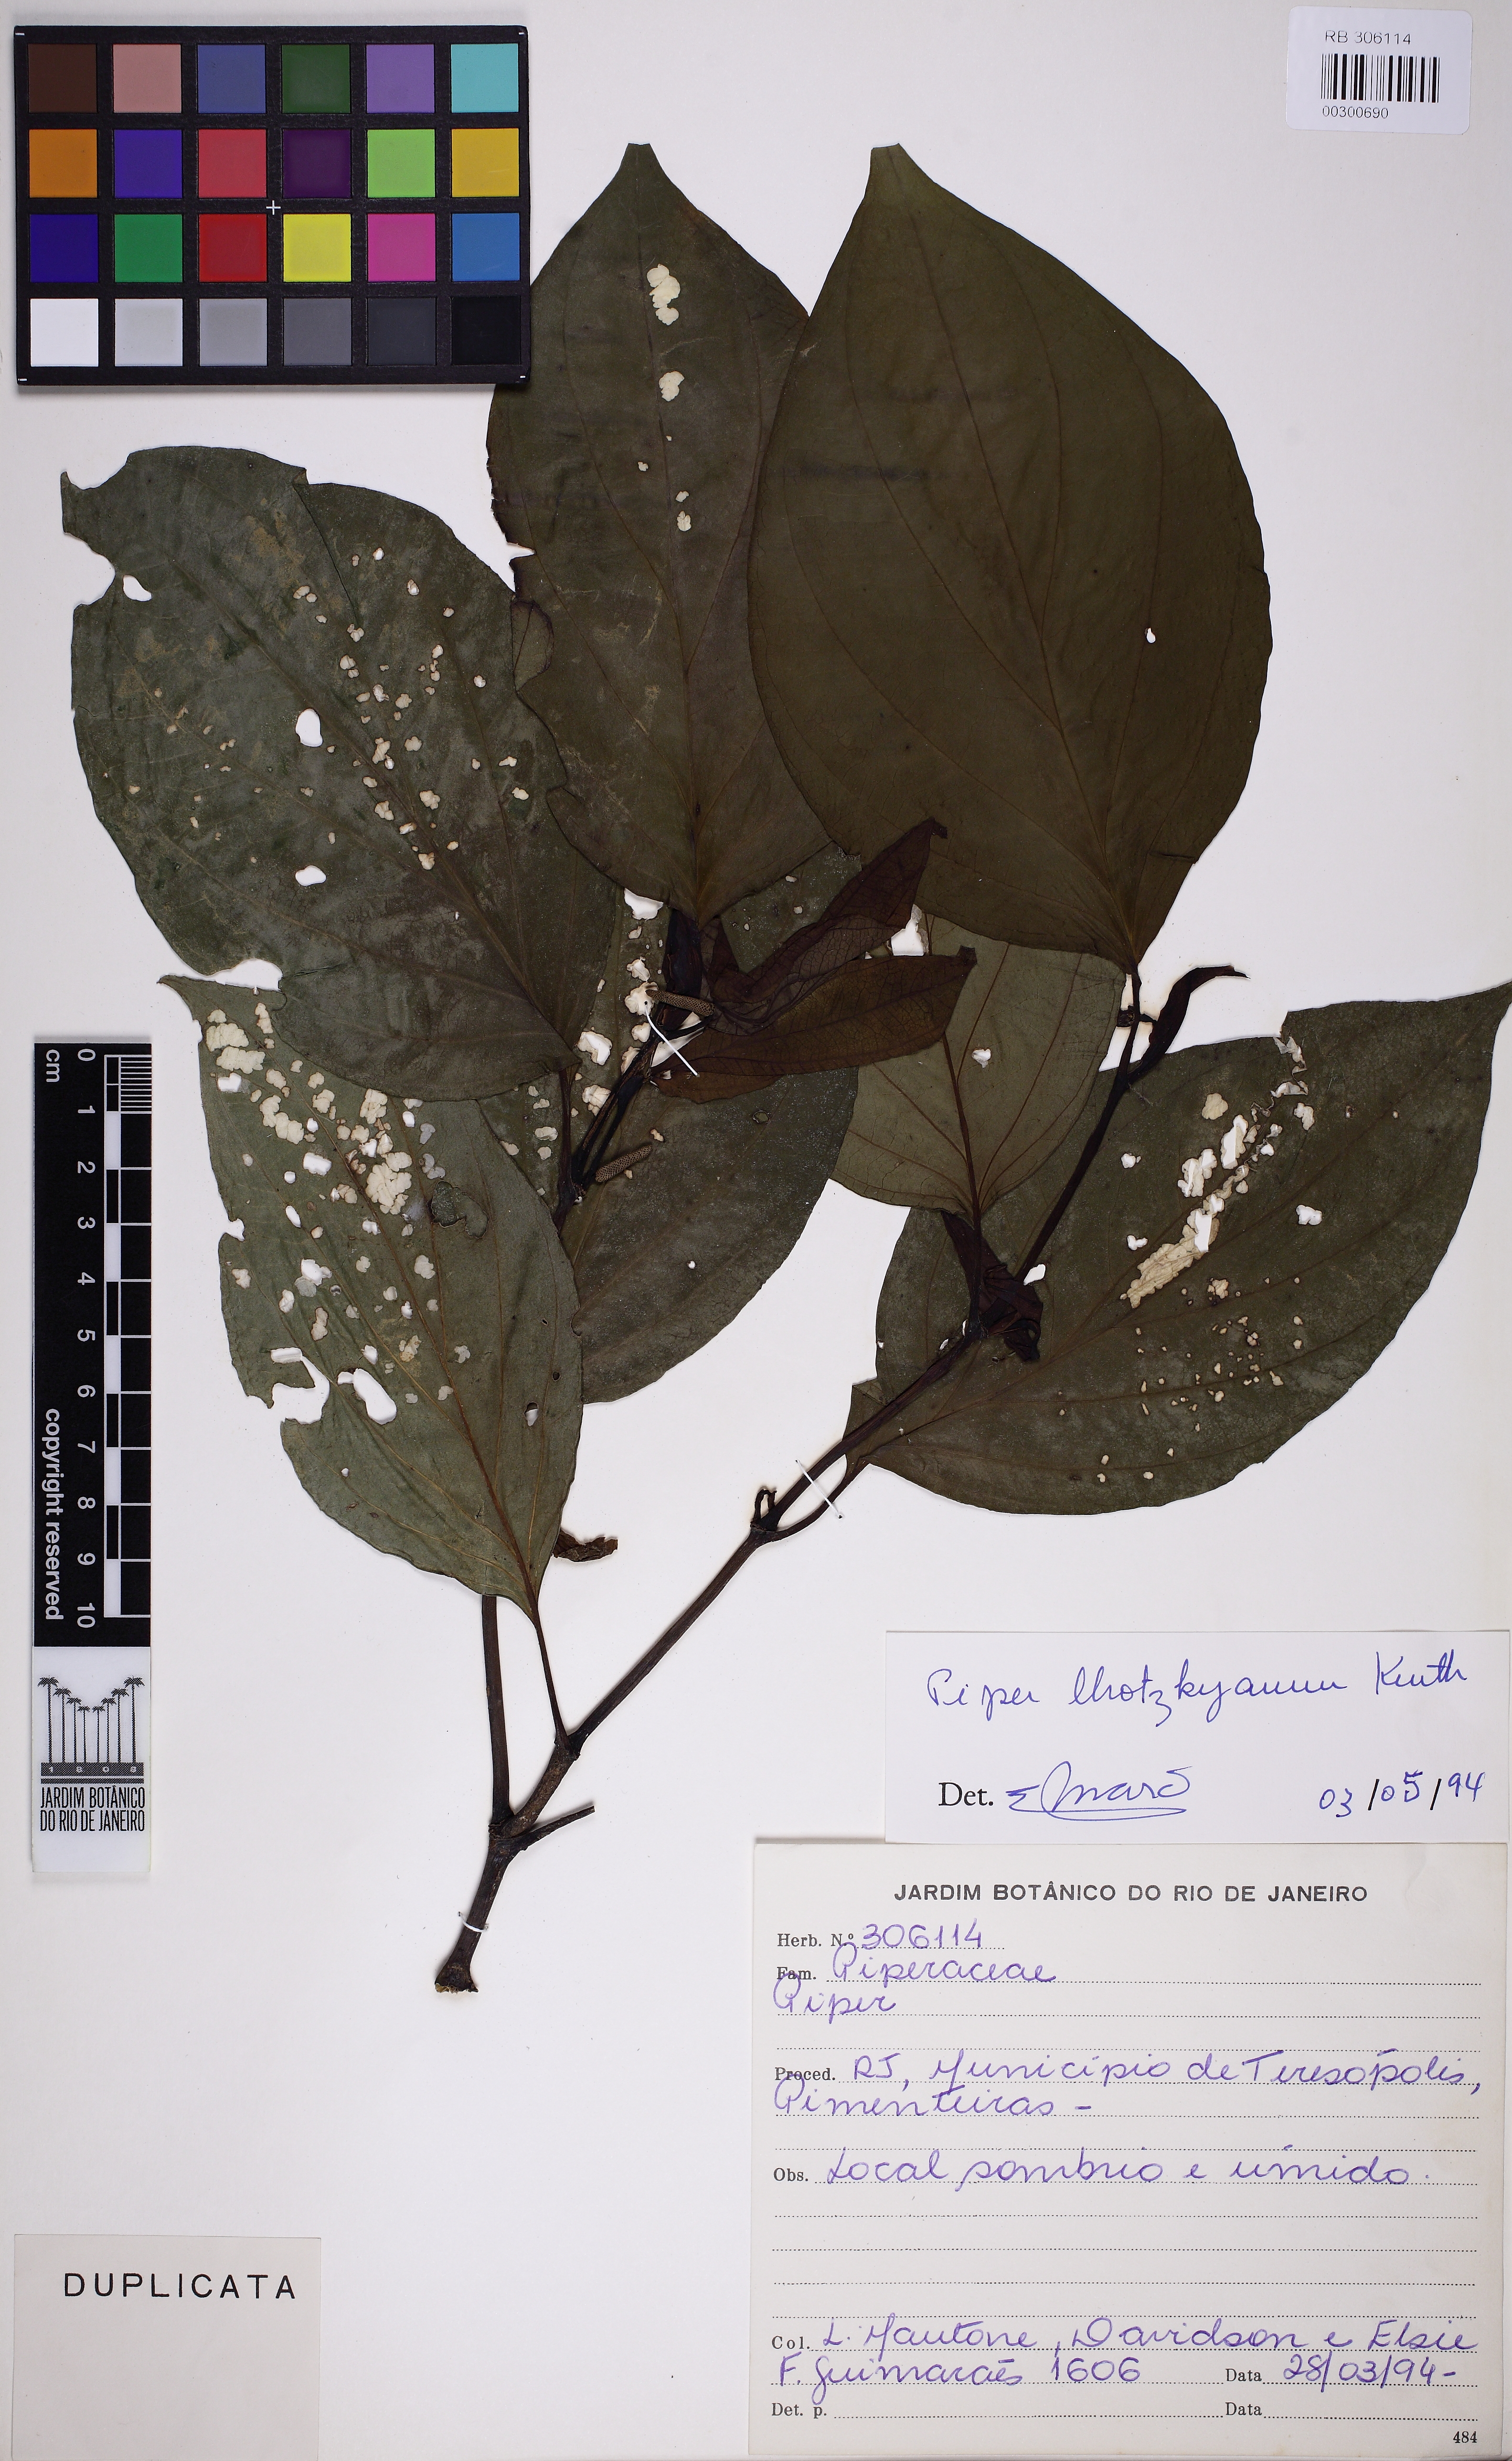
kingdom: Plantae
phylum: Tracheophyta
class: Magnoliopsida
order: Piperales
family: Piperaceae
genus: Piper
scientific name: Piper lhotzkyanum
